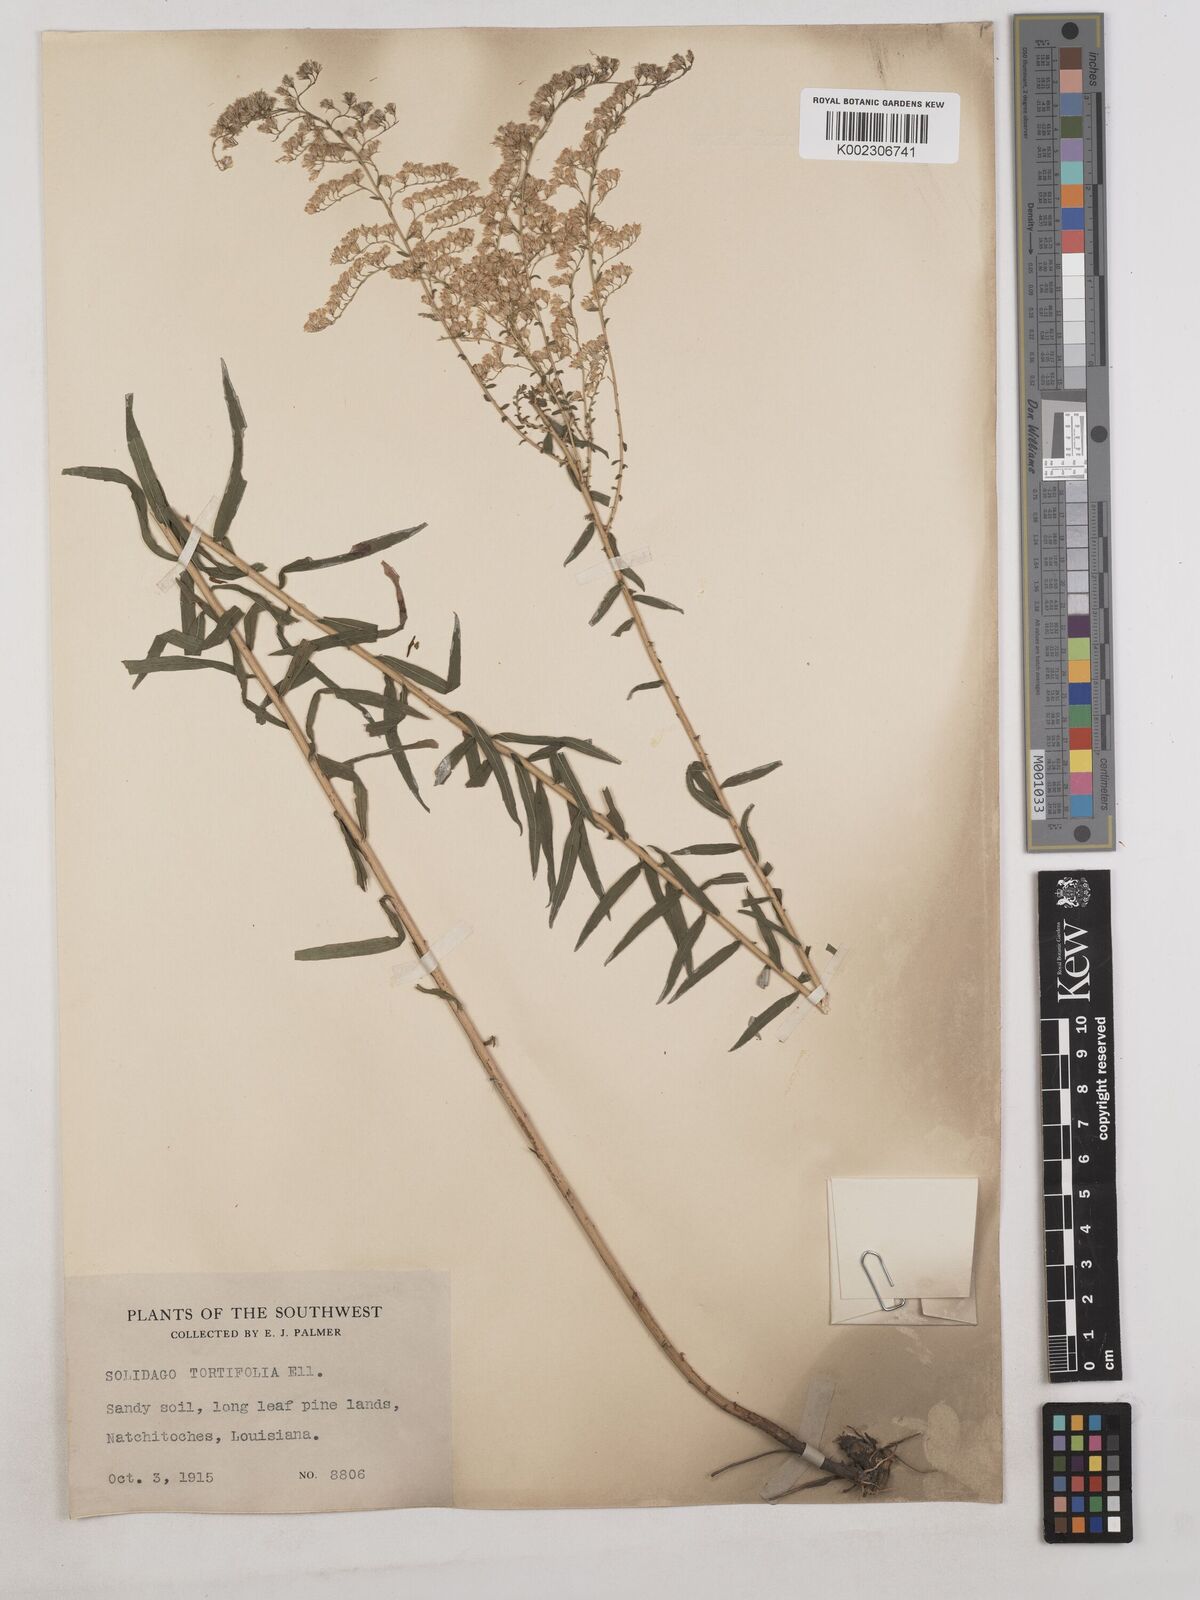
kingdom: Plantae
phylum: Tracheophyta
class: Magnoliopsida
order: Asterales
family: Asteraceae
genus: Solidago
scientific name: Solidago tortifolia
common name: Twisted-leaf goldenrod
